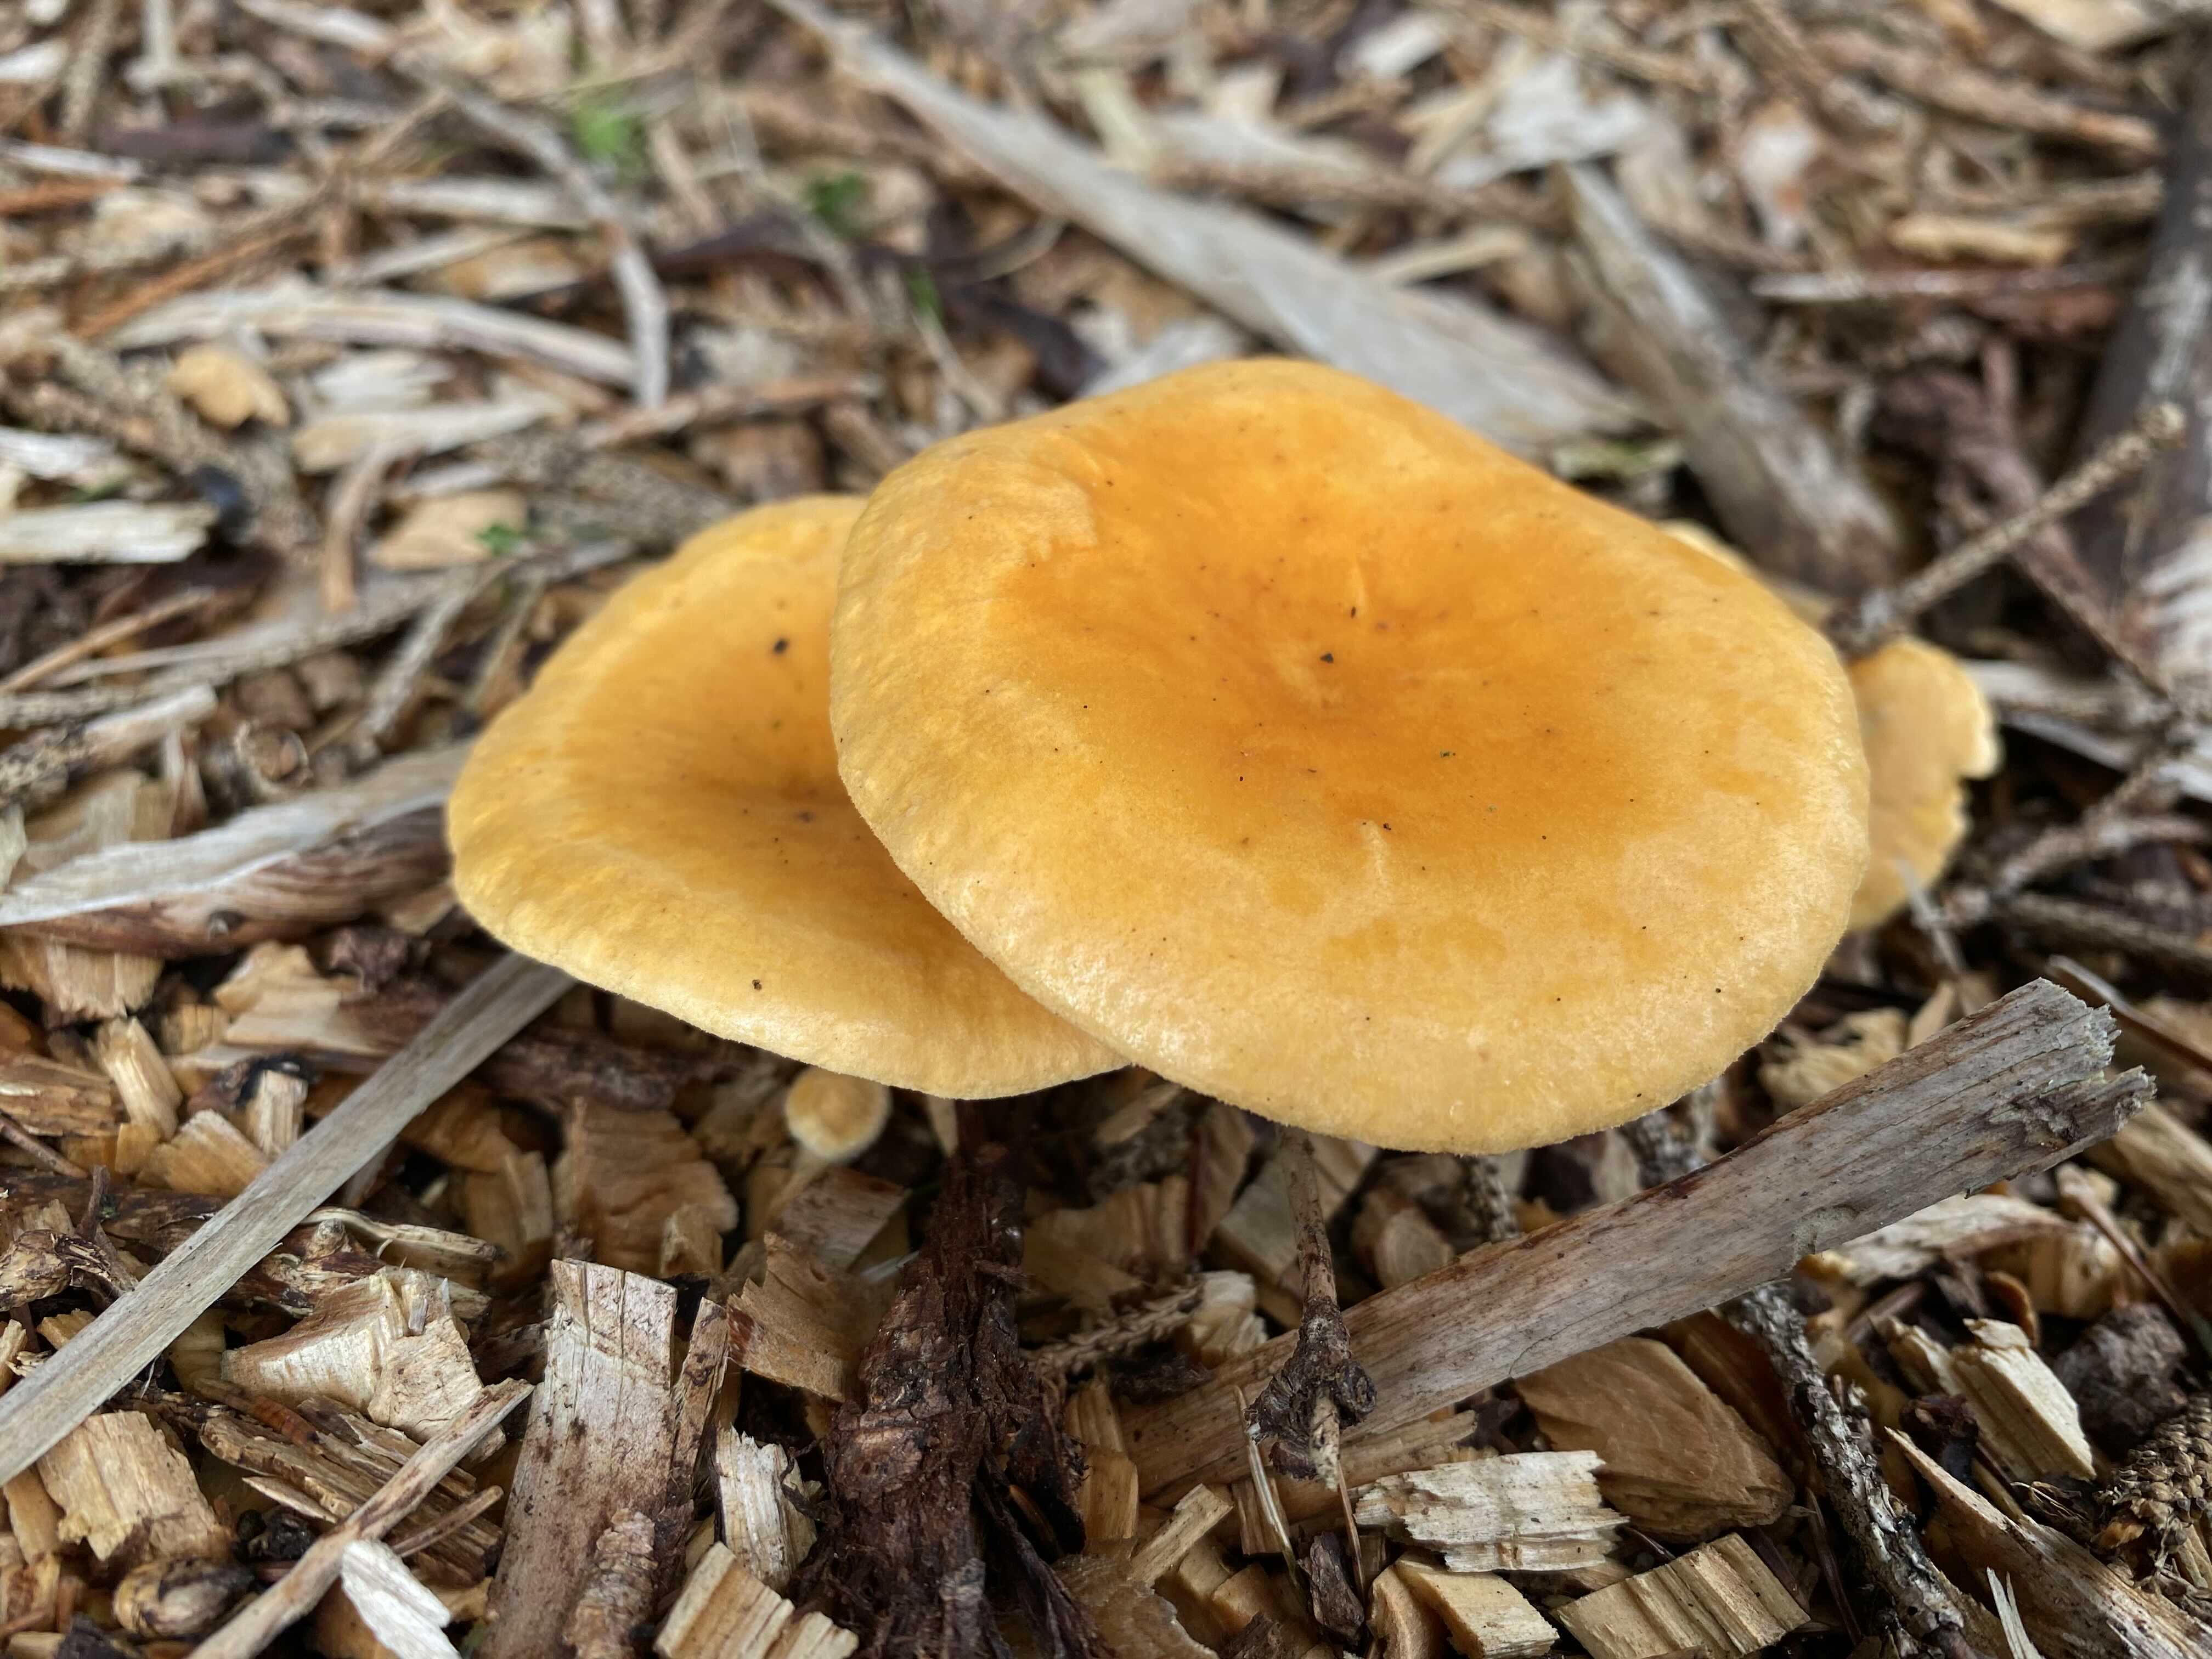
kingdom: Fungi
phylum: Basidiomycota
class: Agaricomycetes
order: Boletales
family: Hygrophoropsidaceae
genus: Hygrophoropsis
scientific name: Hygrophoropsis aurantiaca
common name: almindelig orangekantarel
